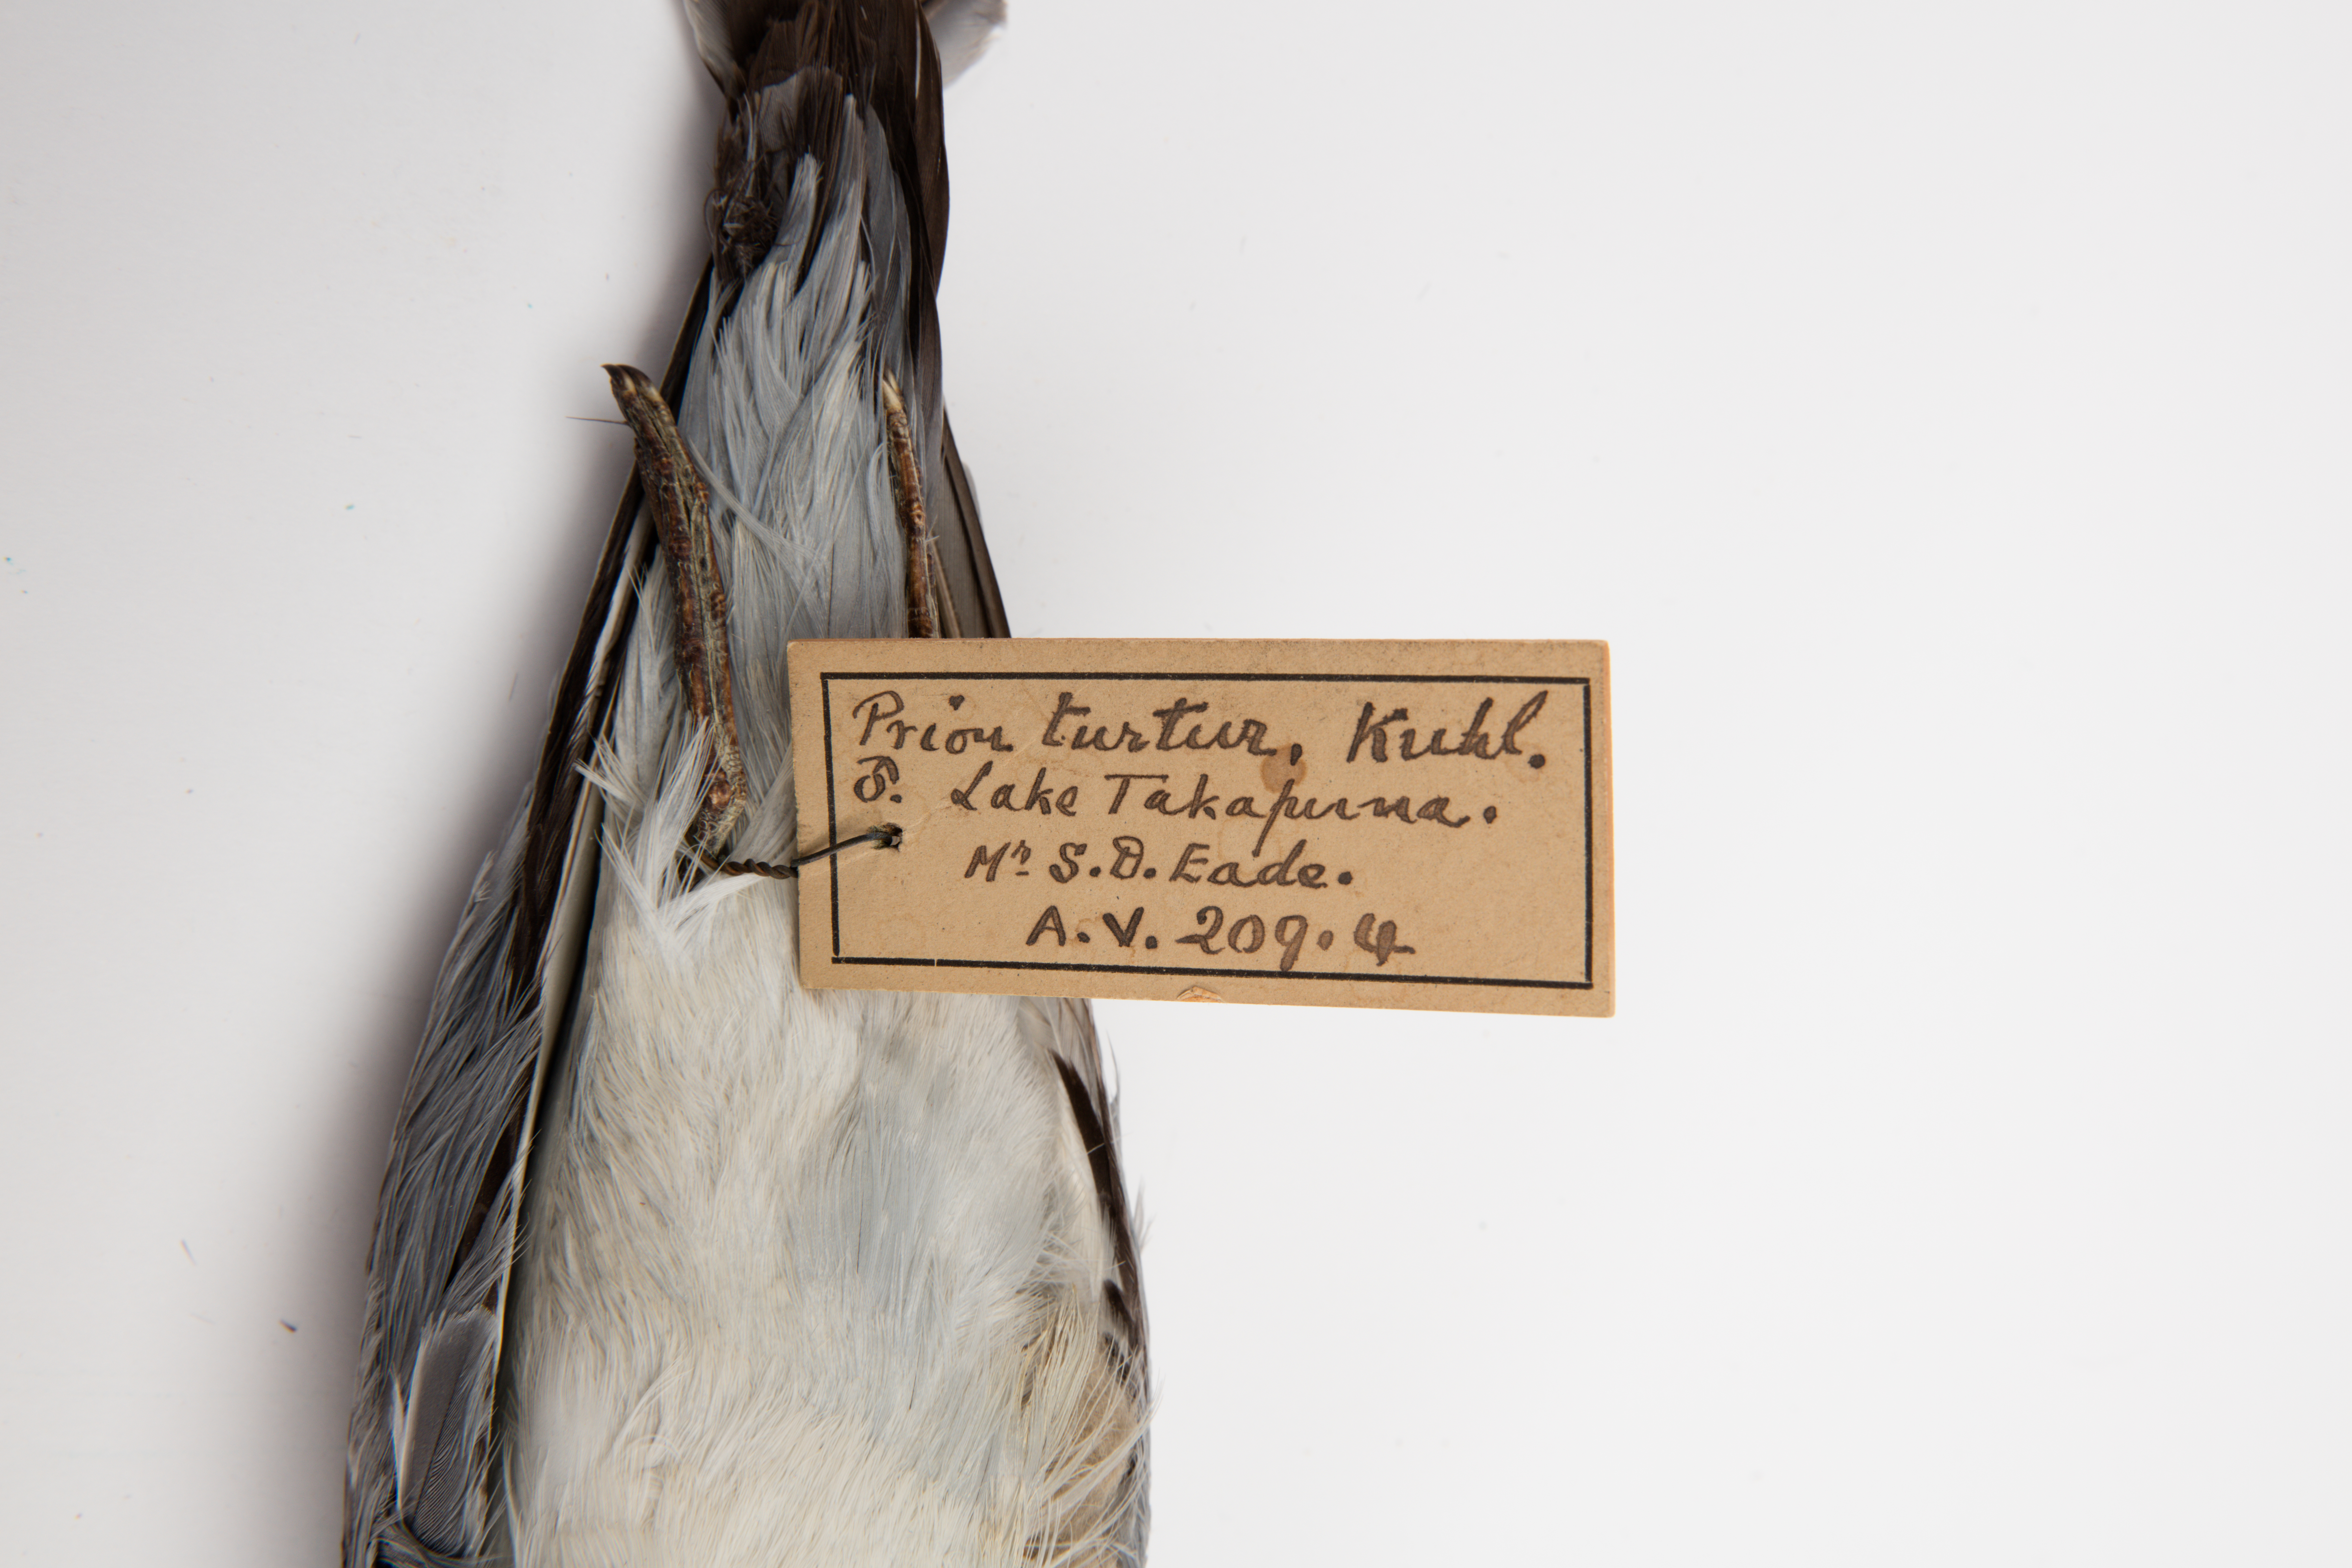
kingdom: Animalia
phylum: Chordata
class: Aves
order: Procellariiformes
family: Procellariidae
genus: Pachyptila
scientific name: Pachyptila turtur
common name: Fairy prion
